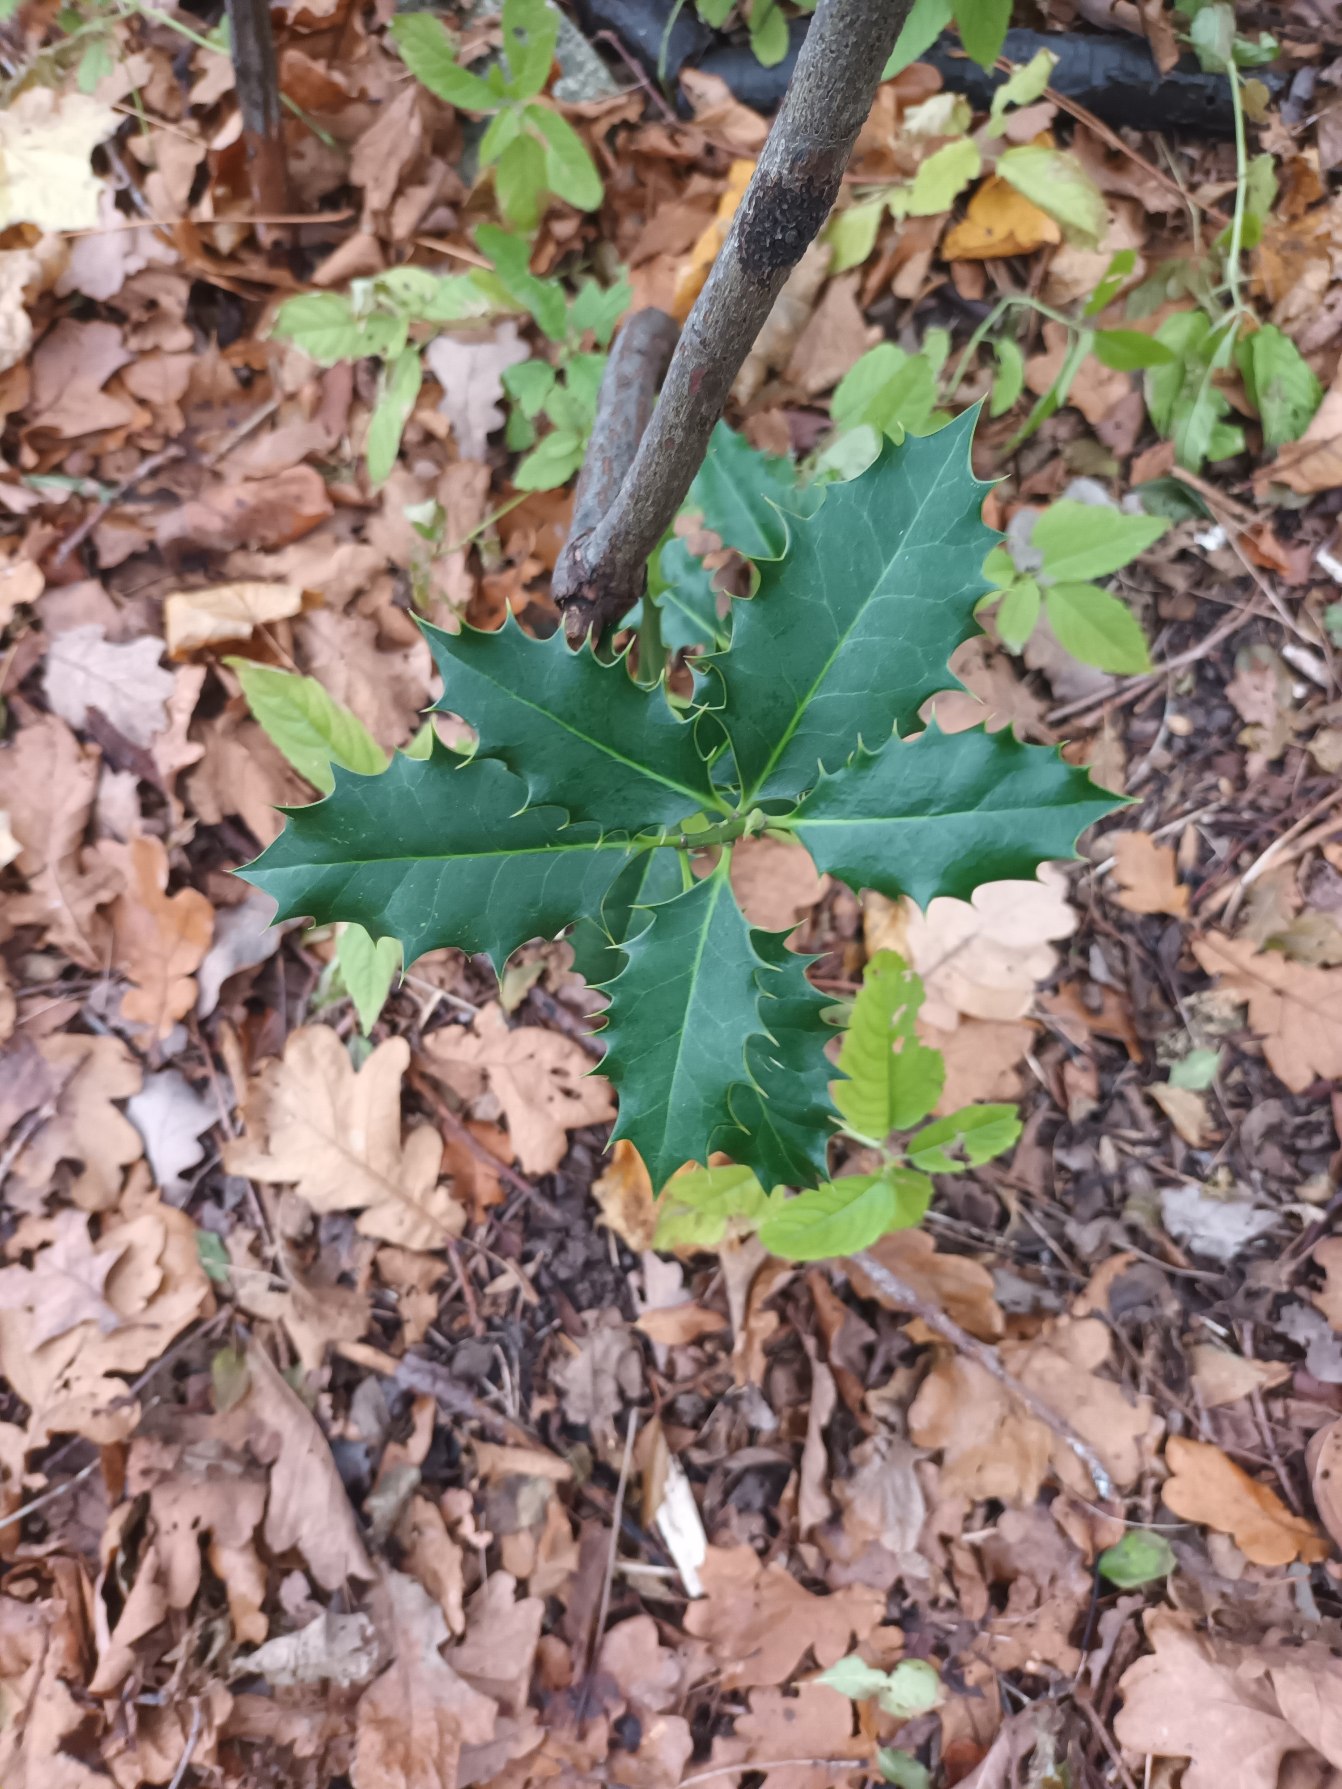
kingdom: Plantae
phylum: Tracheophyta
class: Magnoliopsida
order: Aquifoliales
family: Aquifoliaceae
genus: Ilex
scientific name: Ilex aquifolium
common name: Kristtorn
